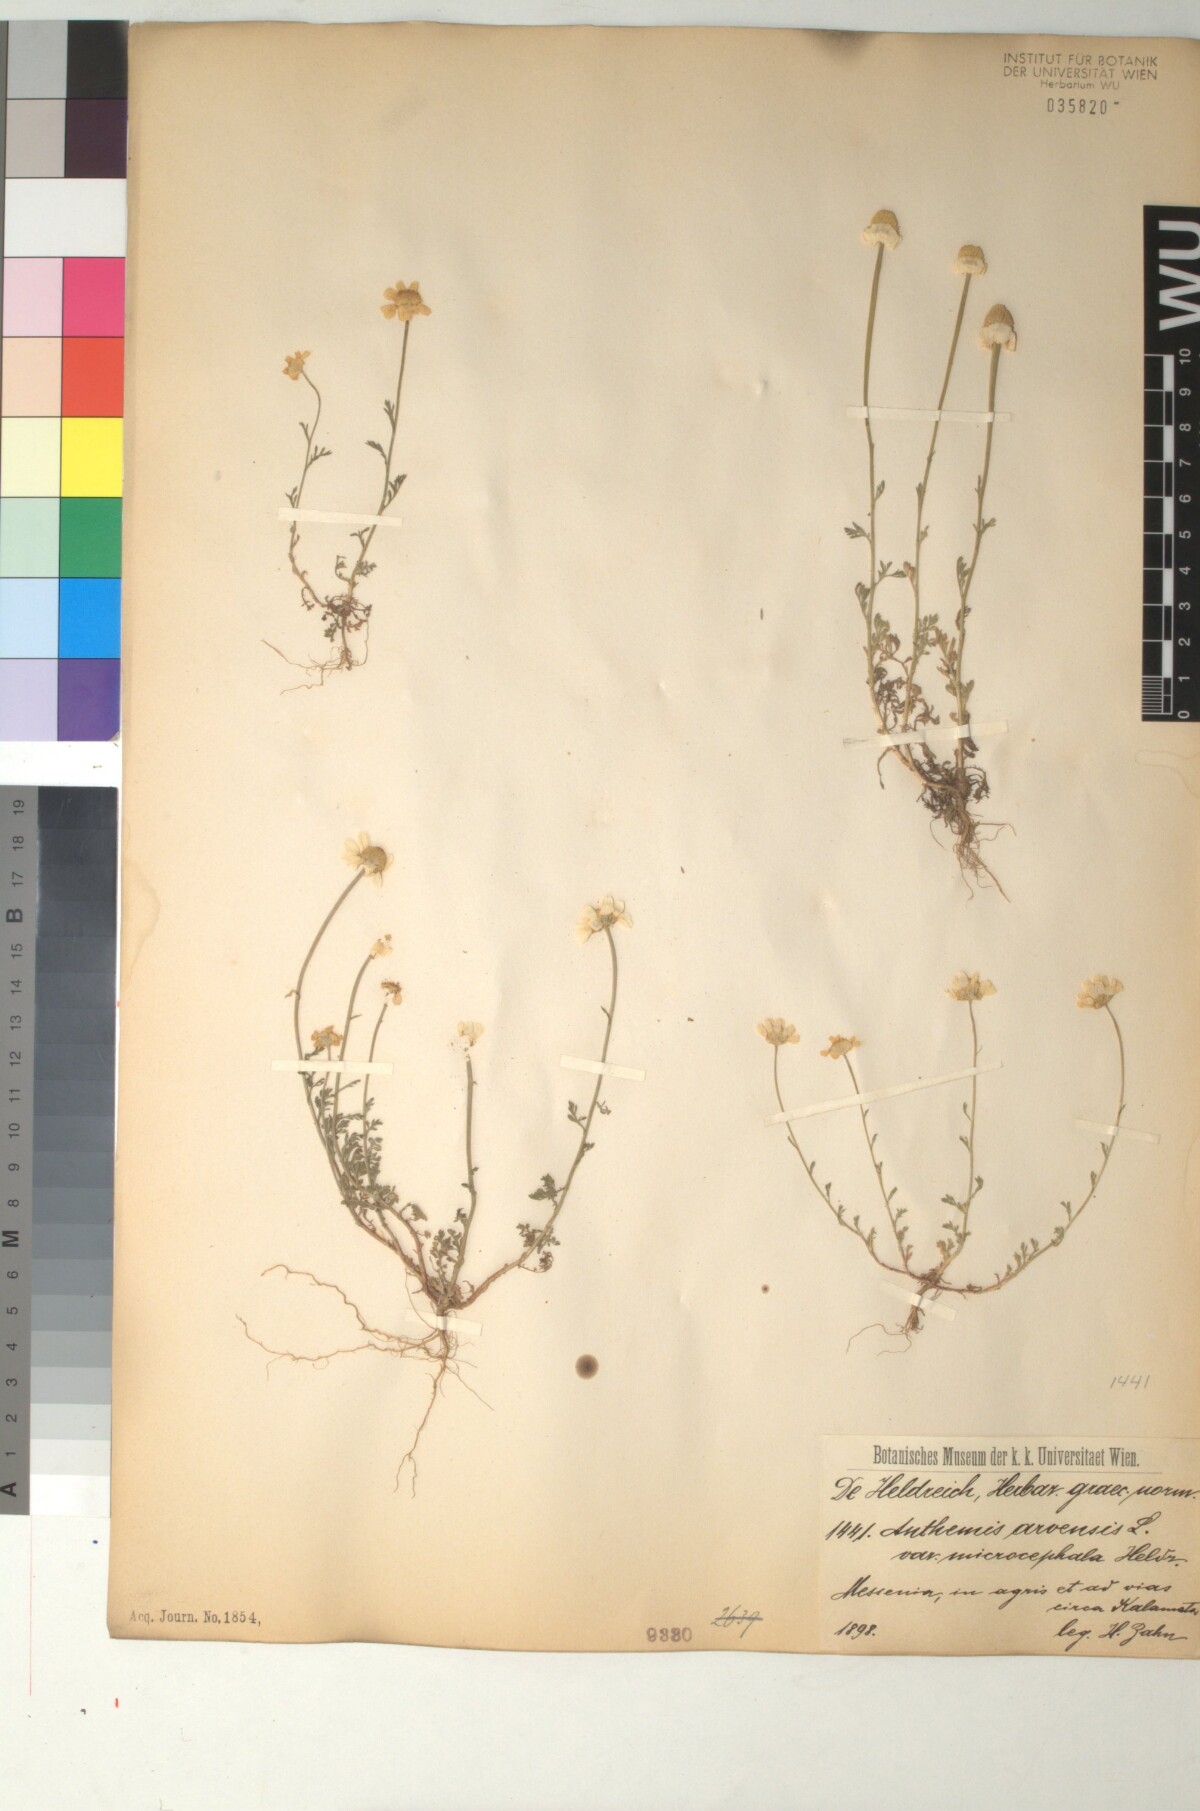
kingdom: Plantae
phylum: Tracheophyta
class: Magnoliopsida
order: Asterales
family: Asteraceae
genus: Anthemis
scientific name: Anthemis arvensis
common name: Corn chamomile
